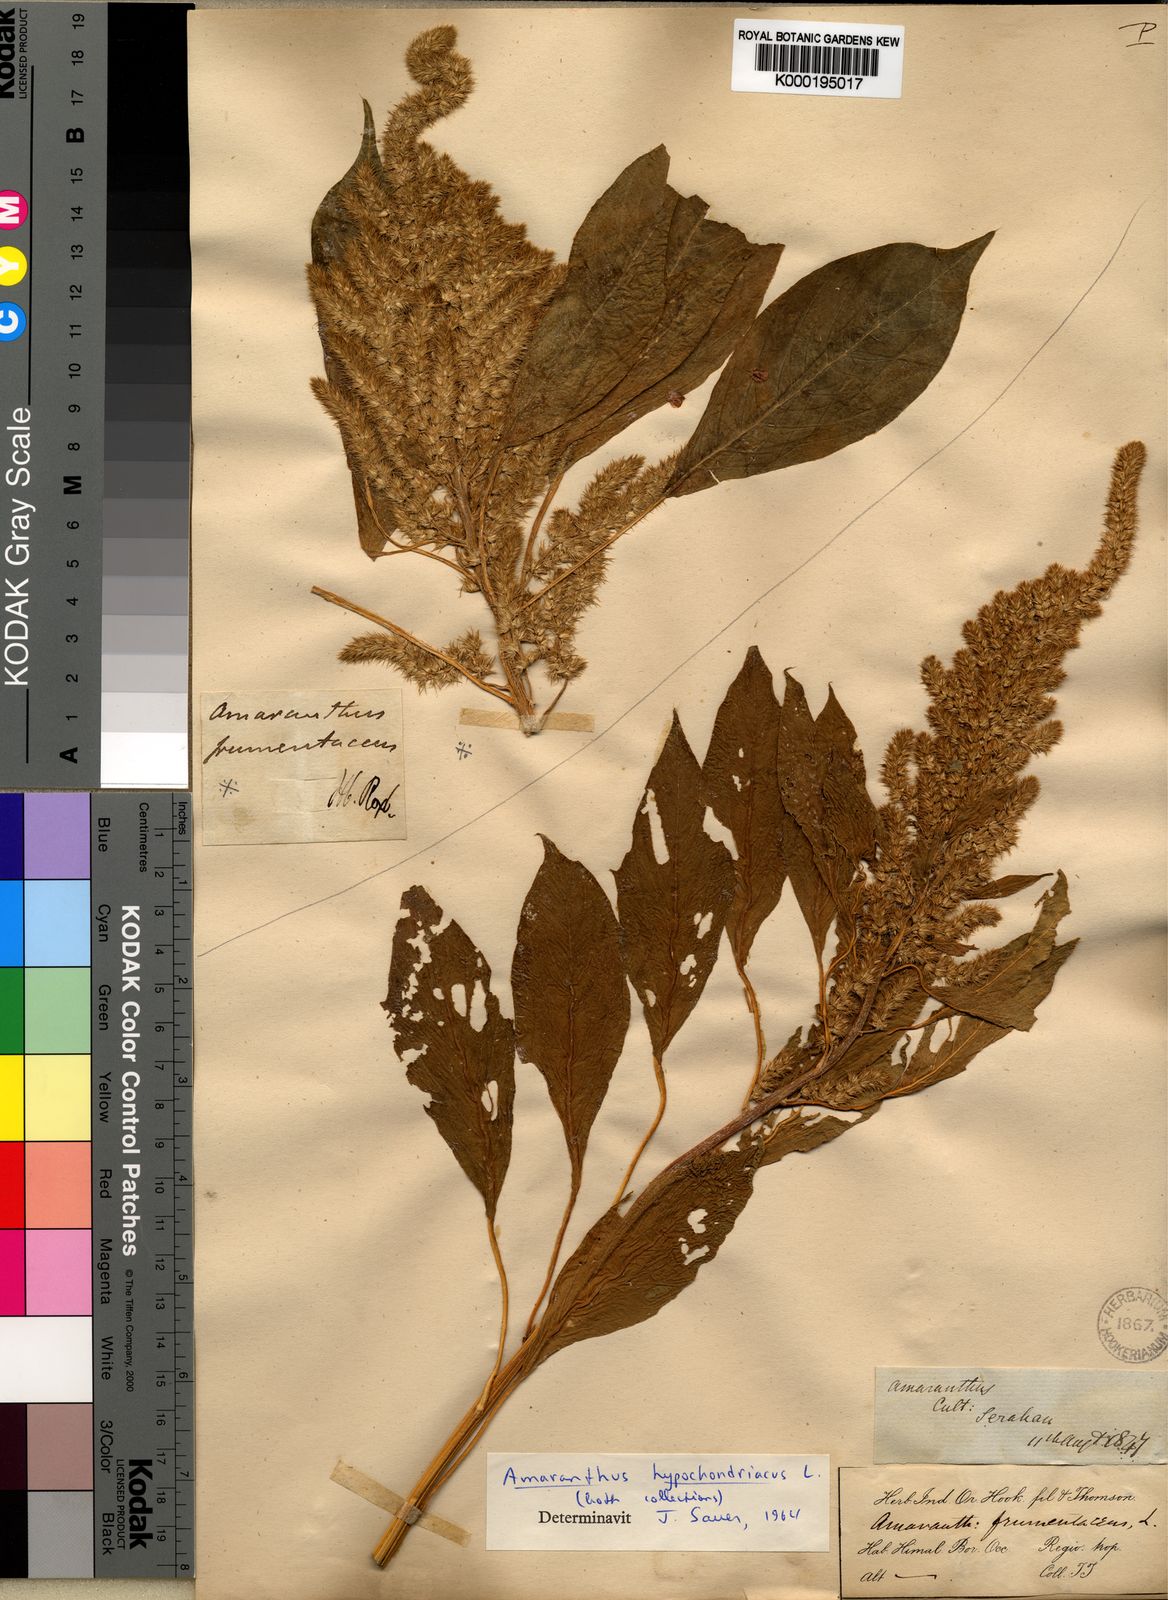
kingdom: Plantae
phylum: Tracheophyta
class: Magnoliopsida
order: Caryophyllales
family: Amaranthaceae
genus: Amaranthus
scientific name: Amaranthus hybridus
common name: Green amaranth
